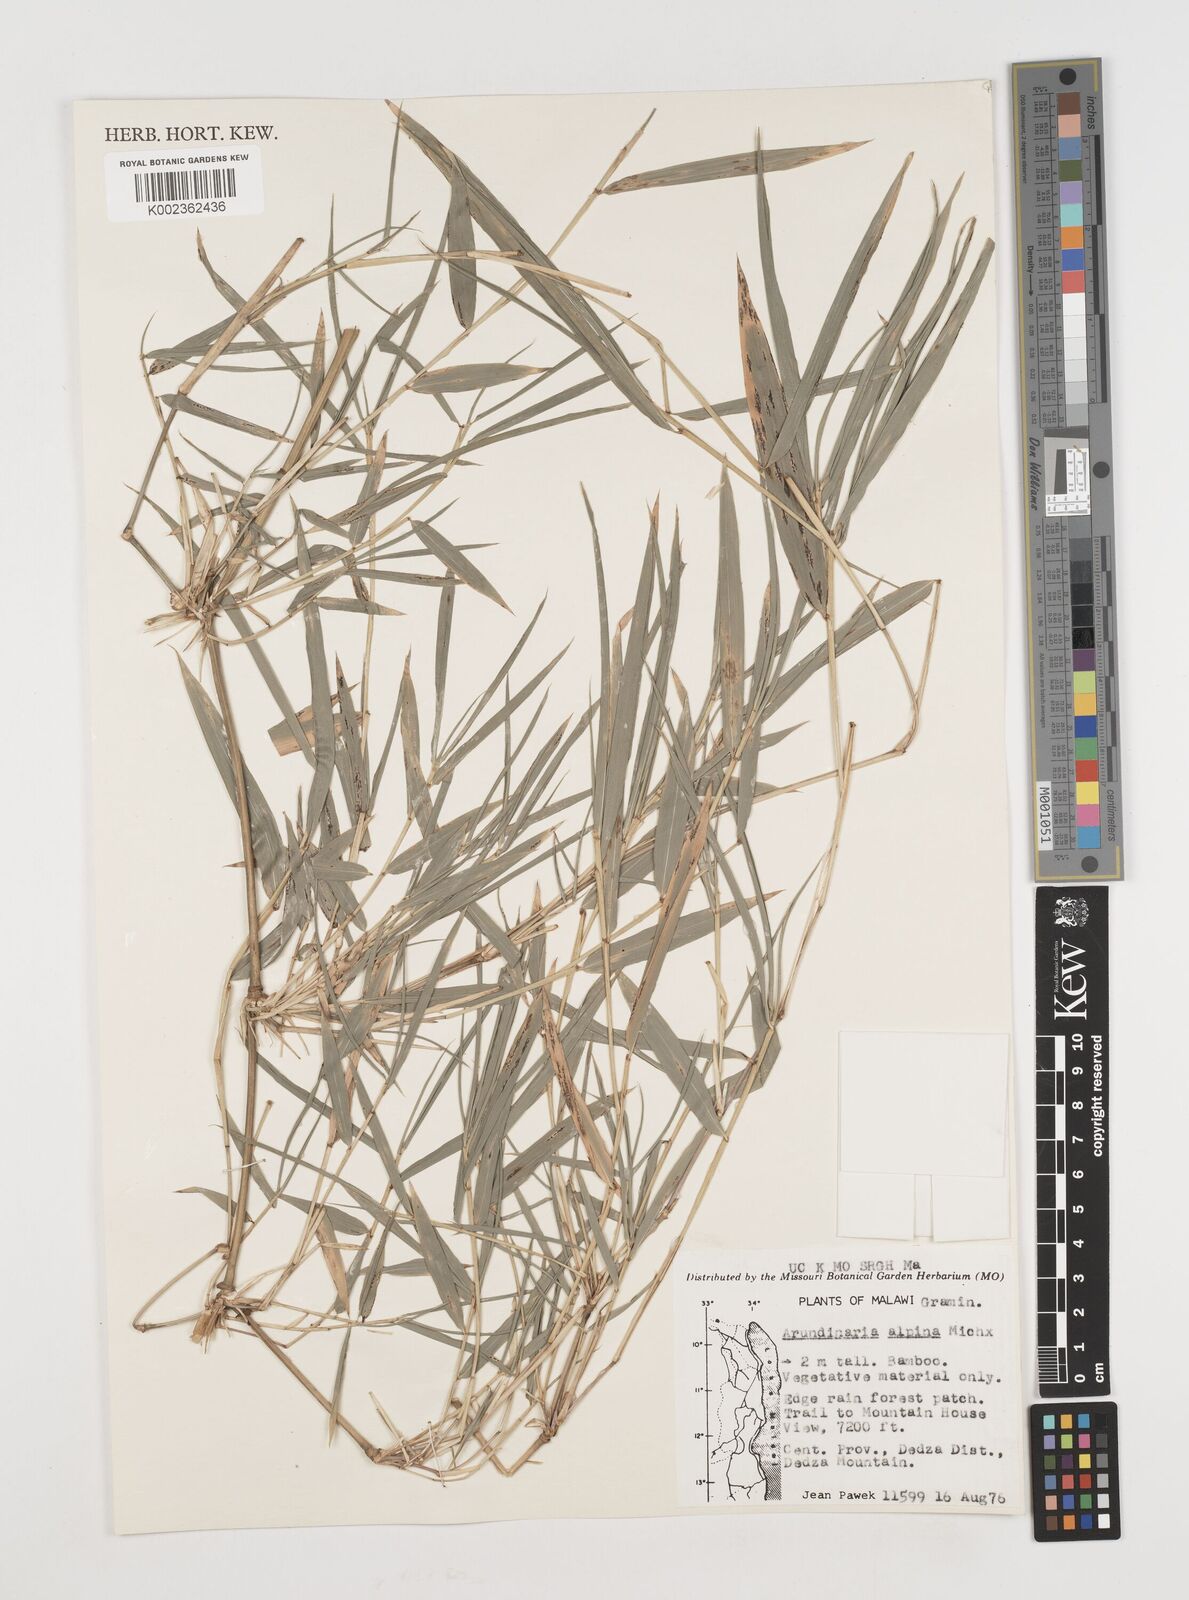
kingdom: Plantae
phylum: Tracheophyta
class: Liliopsida
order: Poales
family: Poaceae
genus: Oldeania
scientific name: Oldeania alpina
